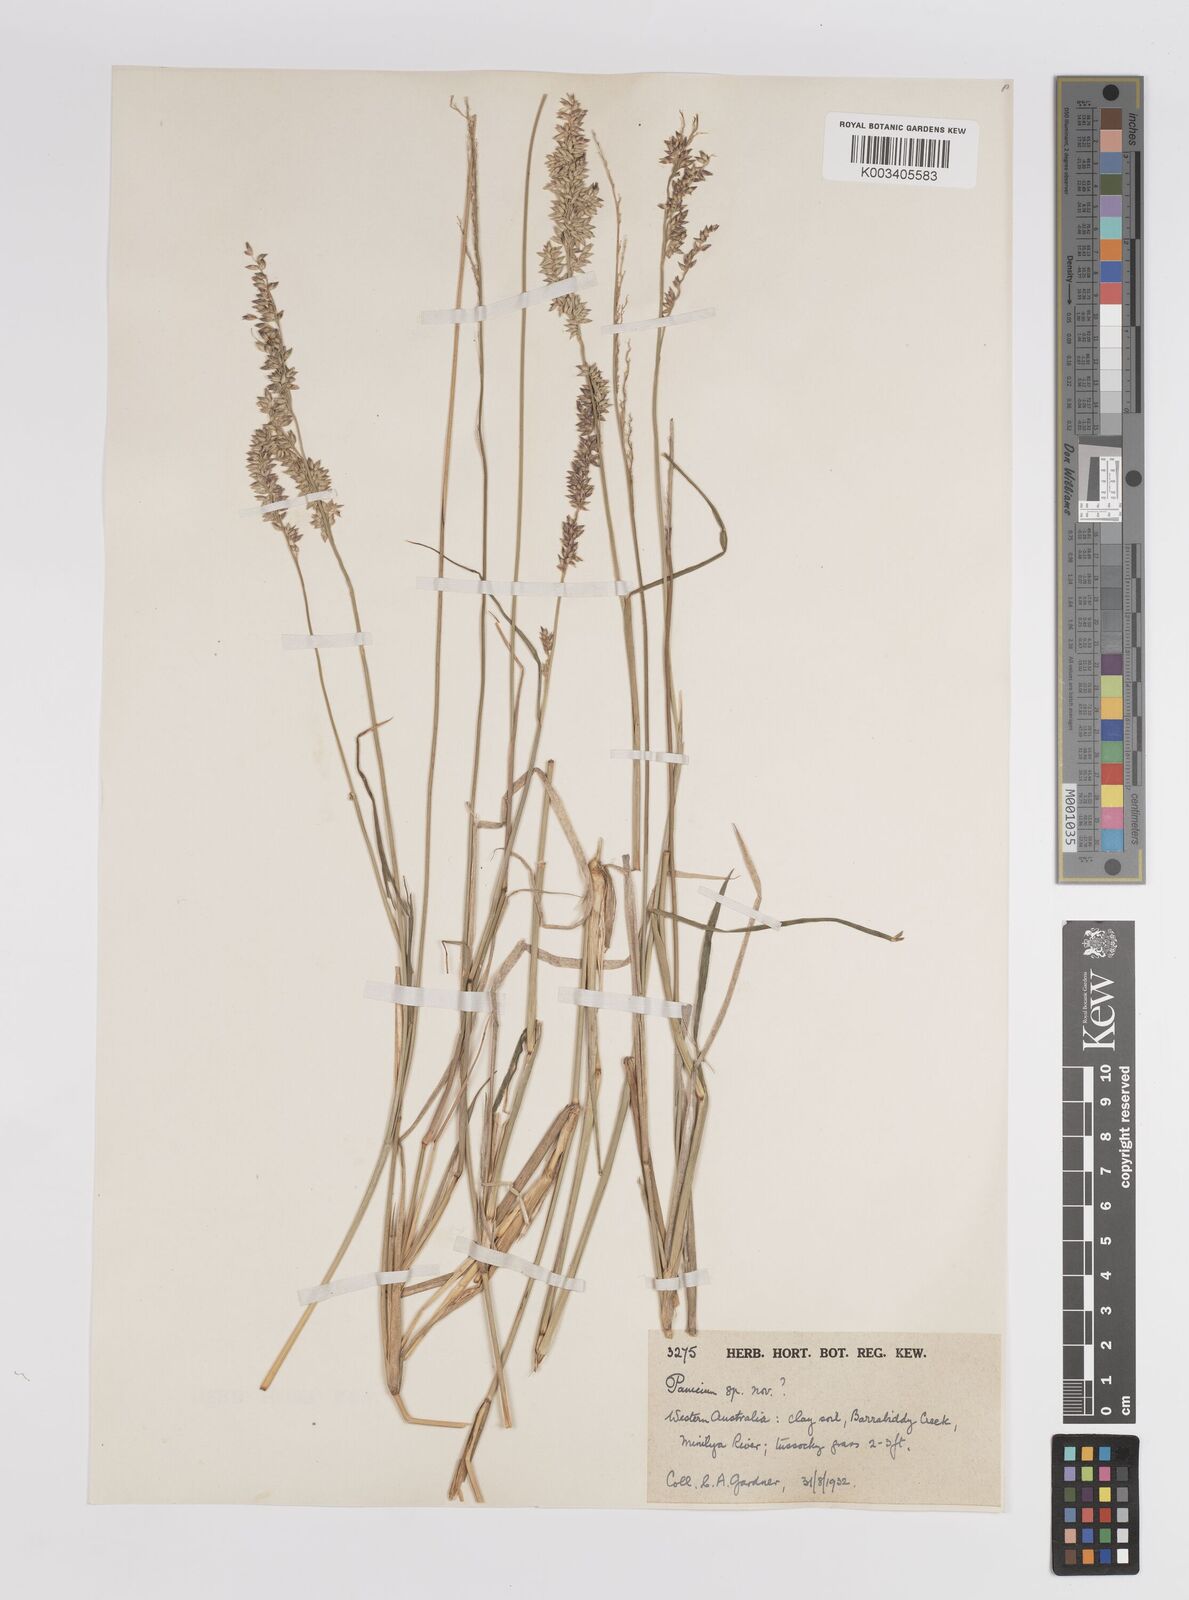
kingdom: Plantae
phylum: Tracheophyta
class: Liliopsida
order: Poales
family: Poaceae
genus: Panicum
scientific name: Panicum
